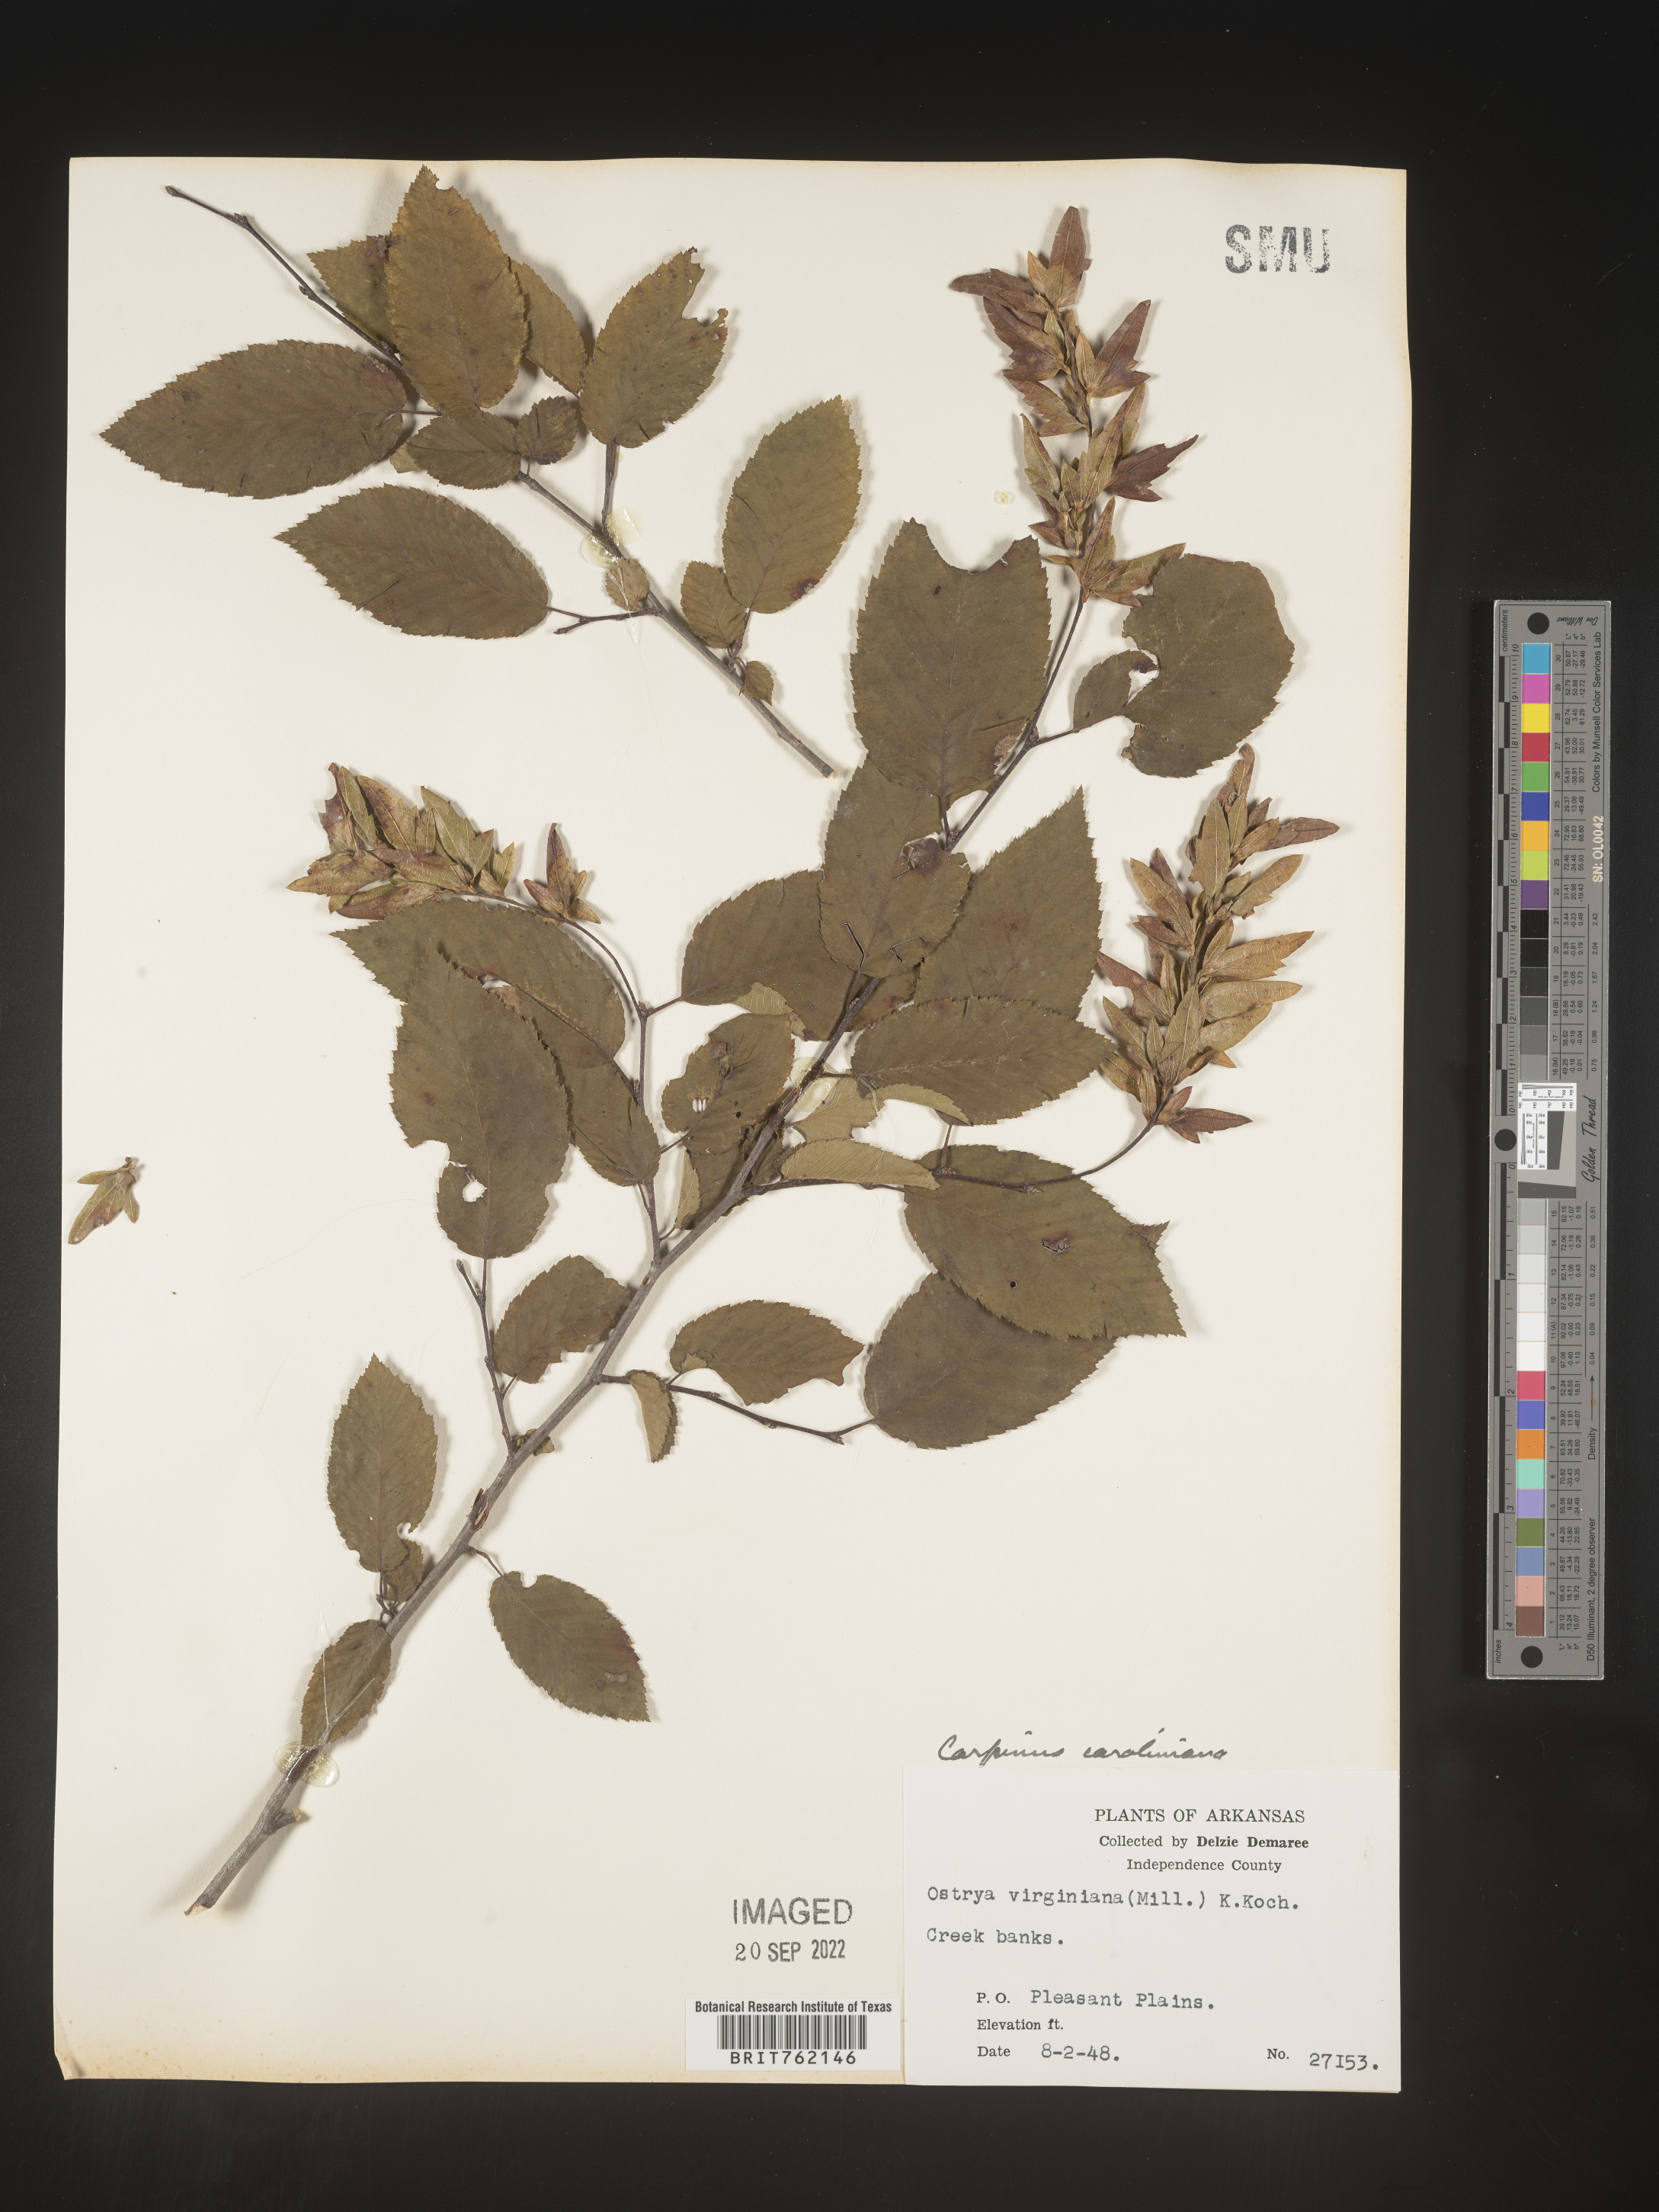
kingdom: Plantae
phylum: Tracheophyta
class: Magnoliopsida
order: Fagales
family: Betulaceae
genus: Carpinus
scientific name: Carpinus caroliniana
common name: American hornbeam
